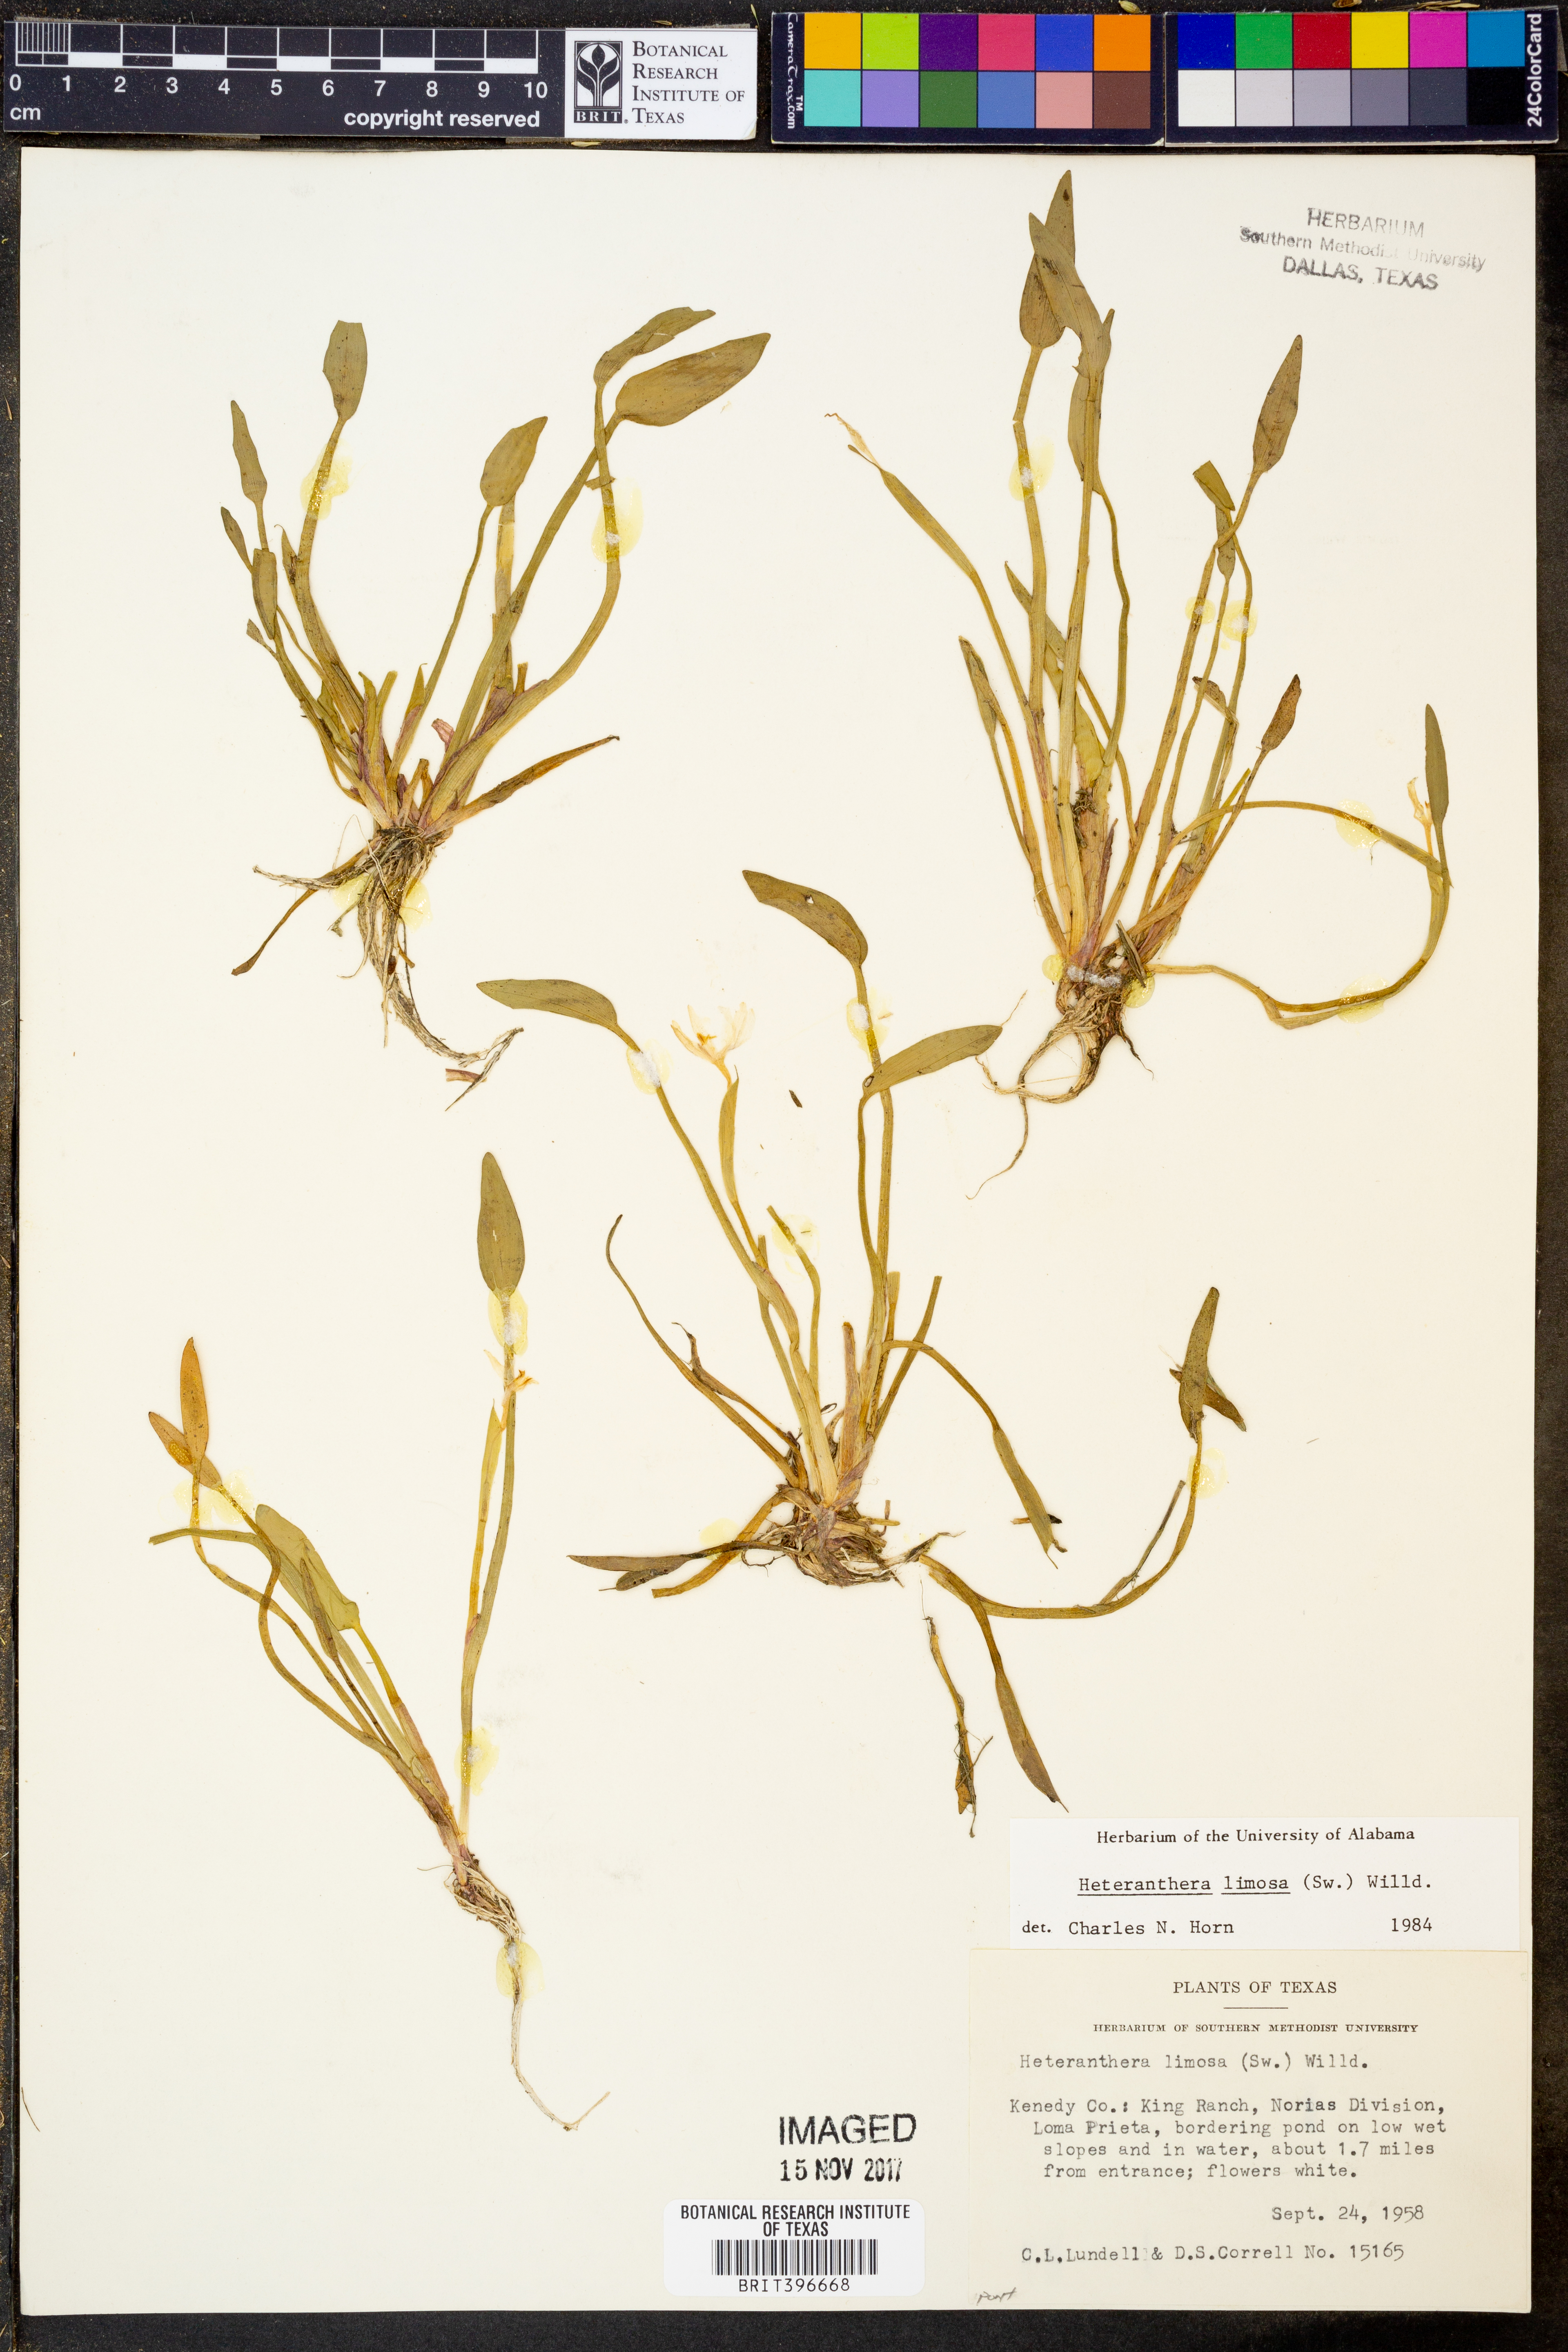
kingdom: Plantae
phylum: Tracheophyta
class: Liliopsida
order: Commelinales
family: Pontederiaceae
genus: Heteranthera
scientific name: Heteranthera limosa
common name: Blue mud-plantain
